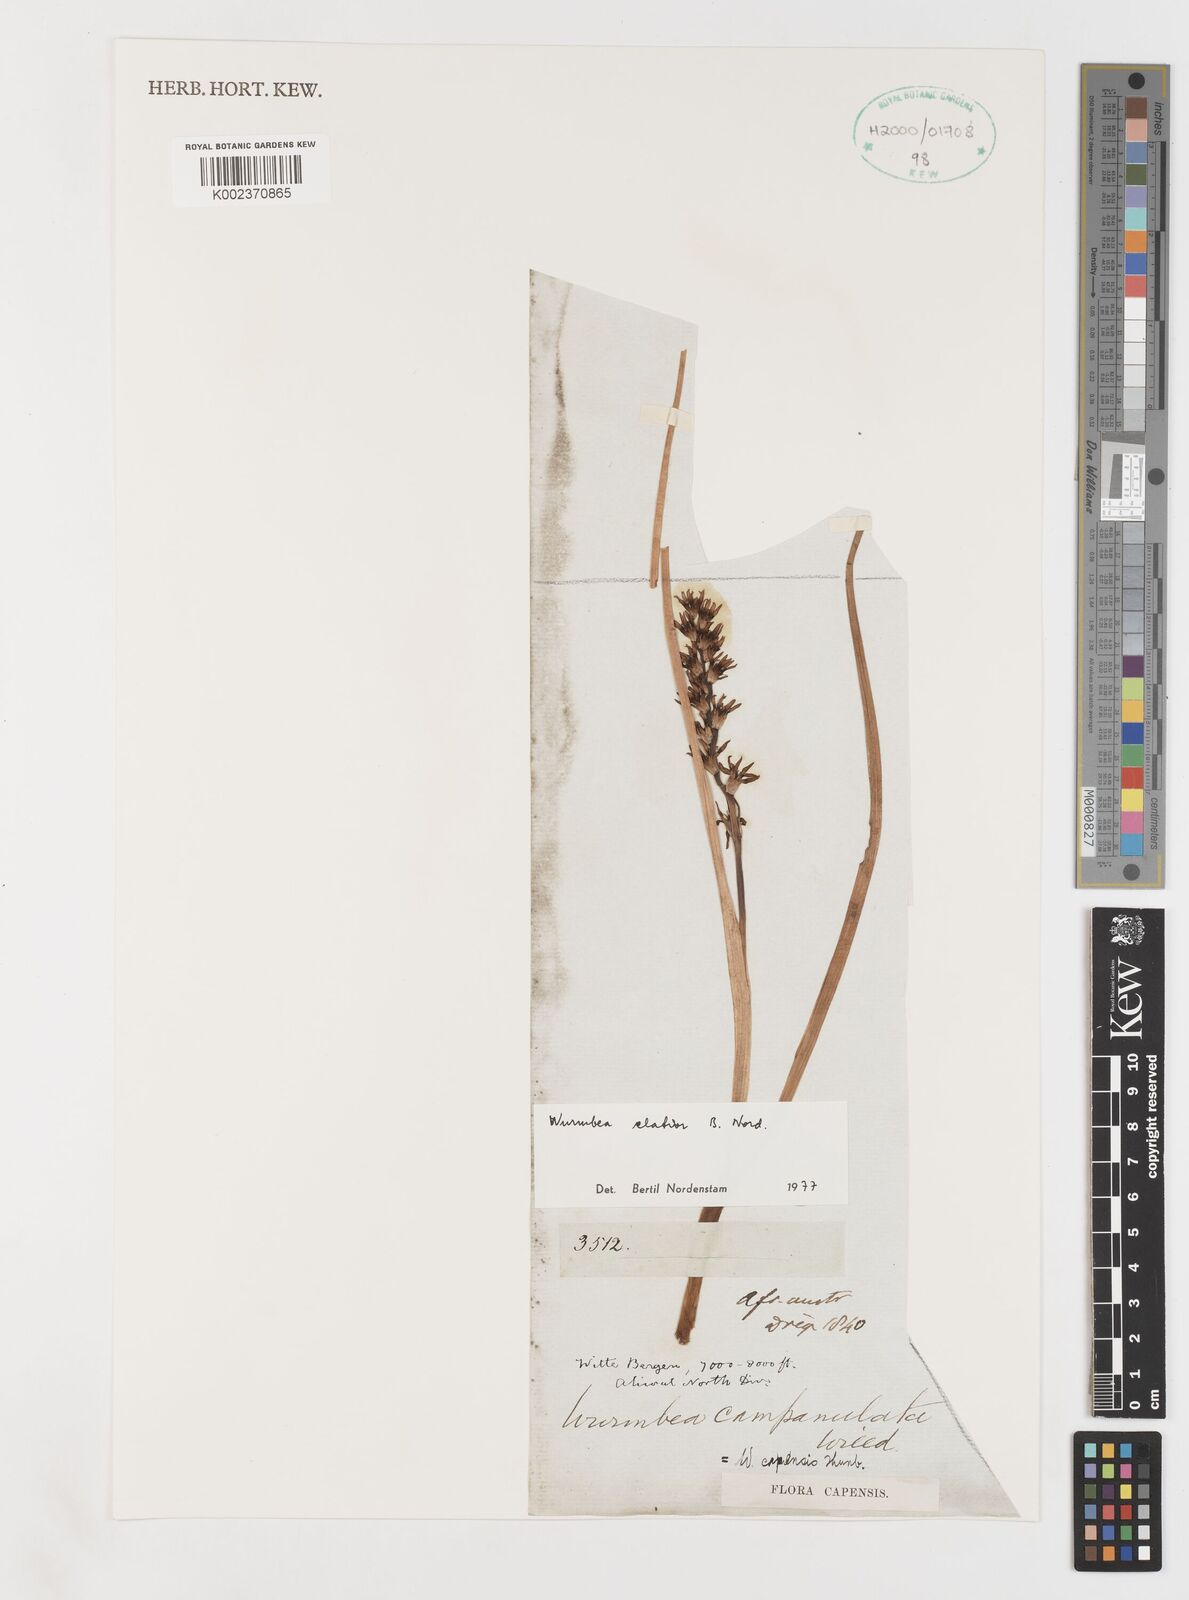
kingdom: Plantae
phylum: Tracheophyta
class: Liliopsida
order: Liliales
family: Colchicaceae
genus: Wurmbea
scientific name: Wurmbea elatior
